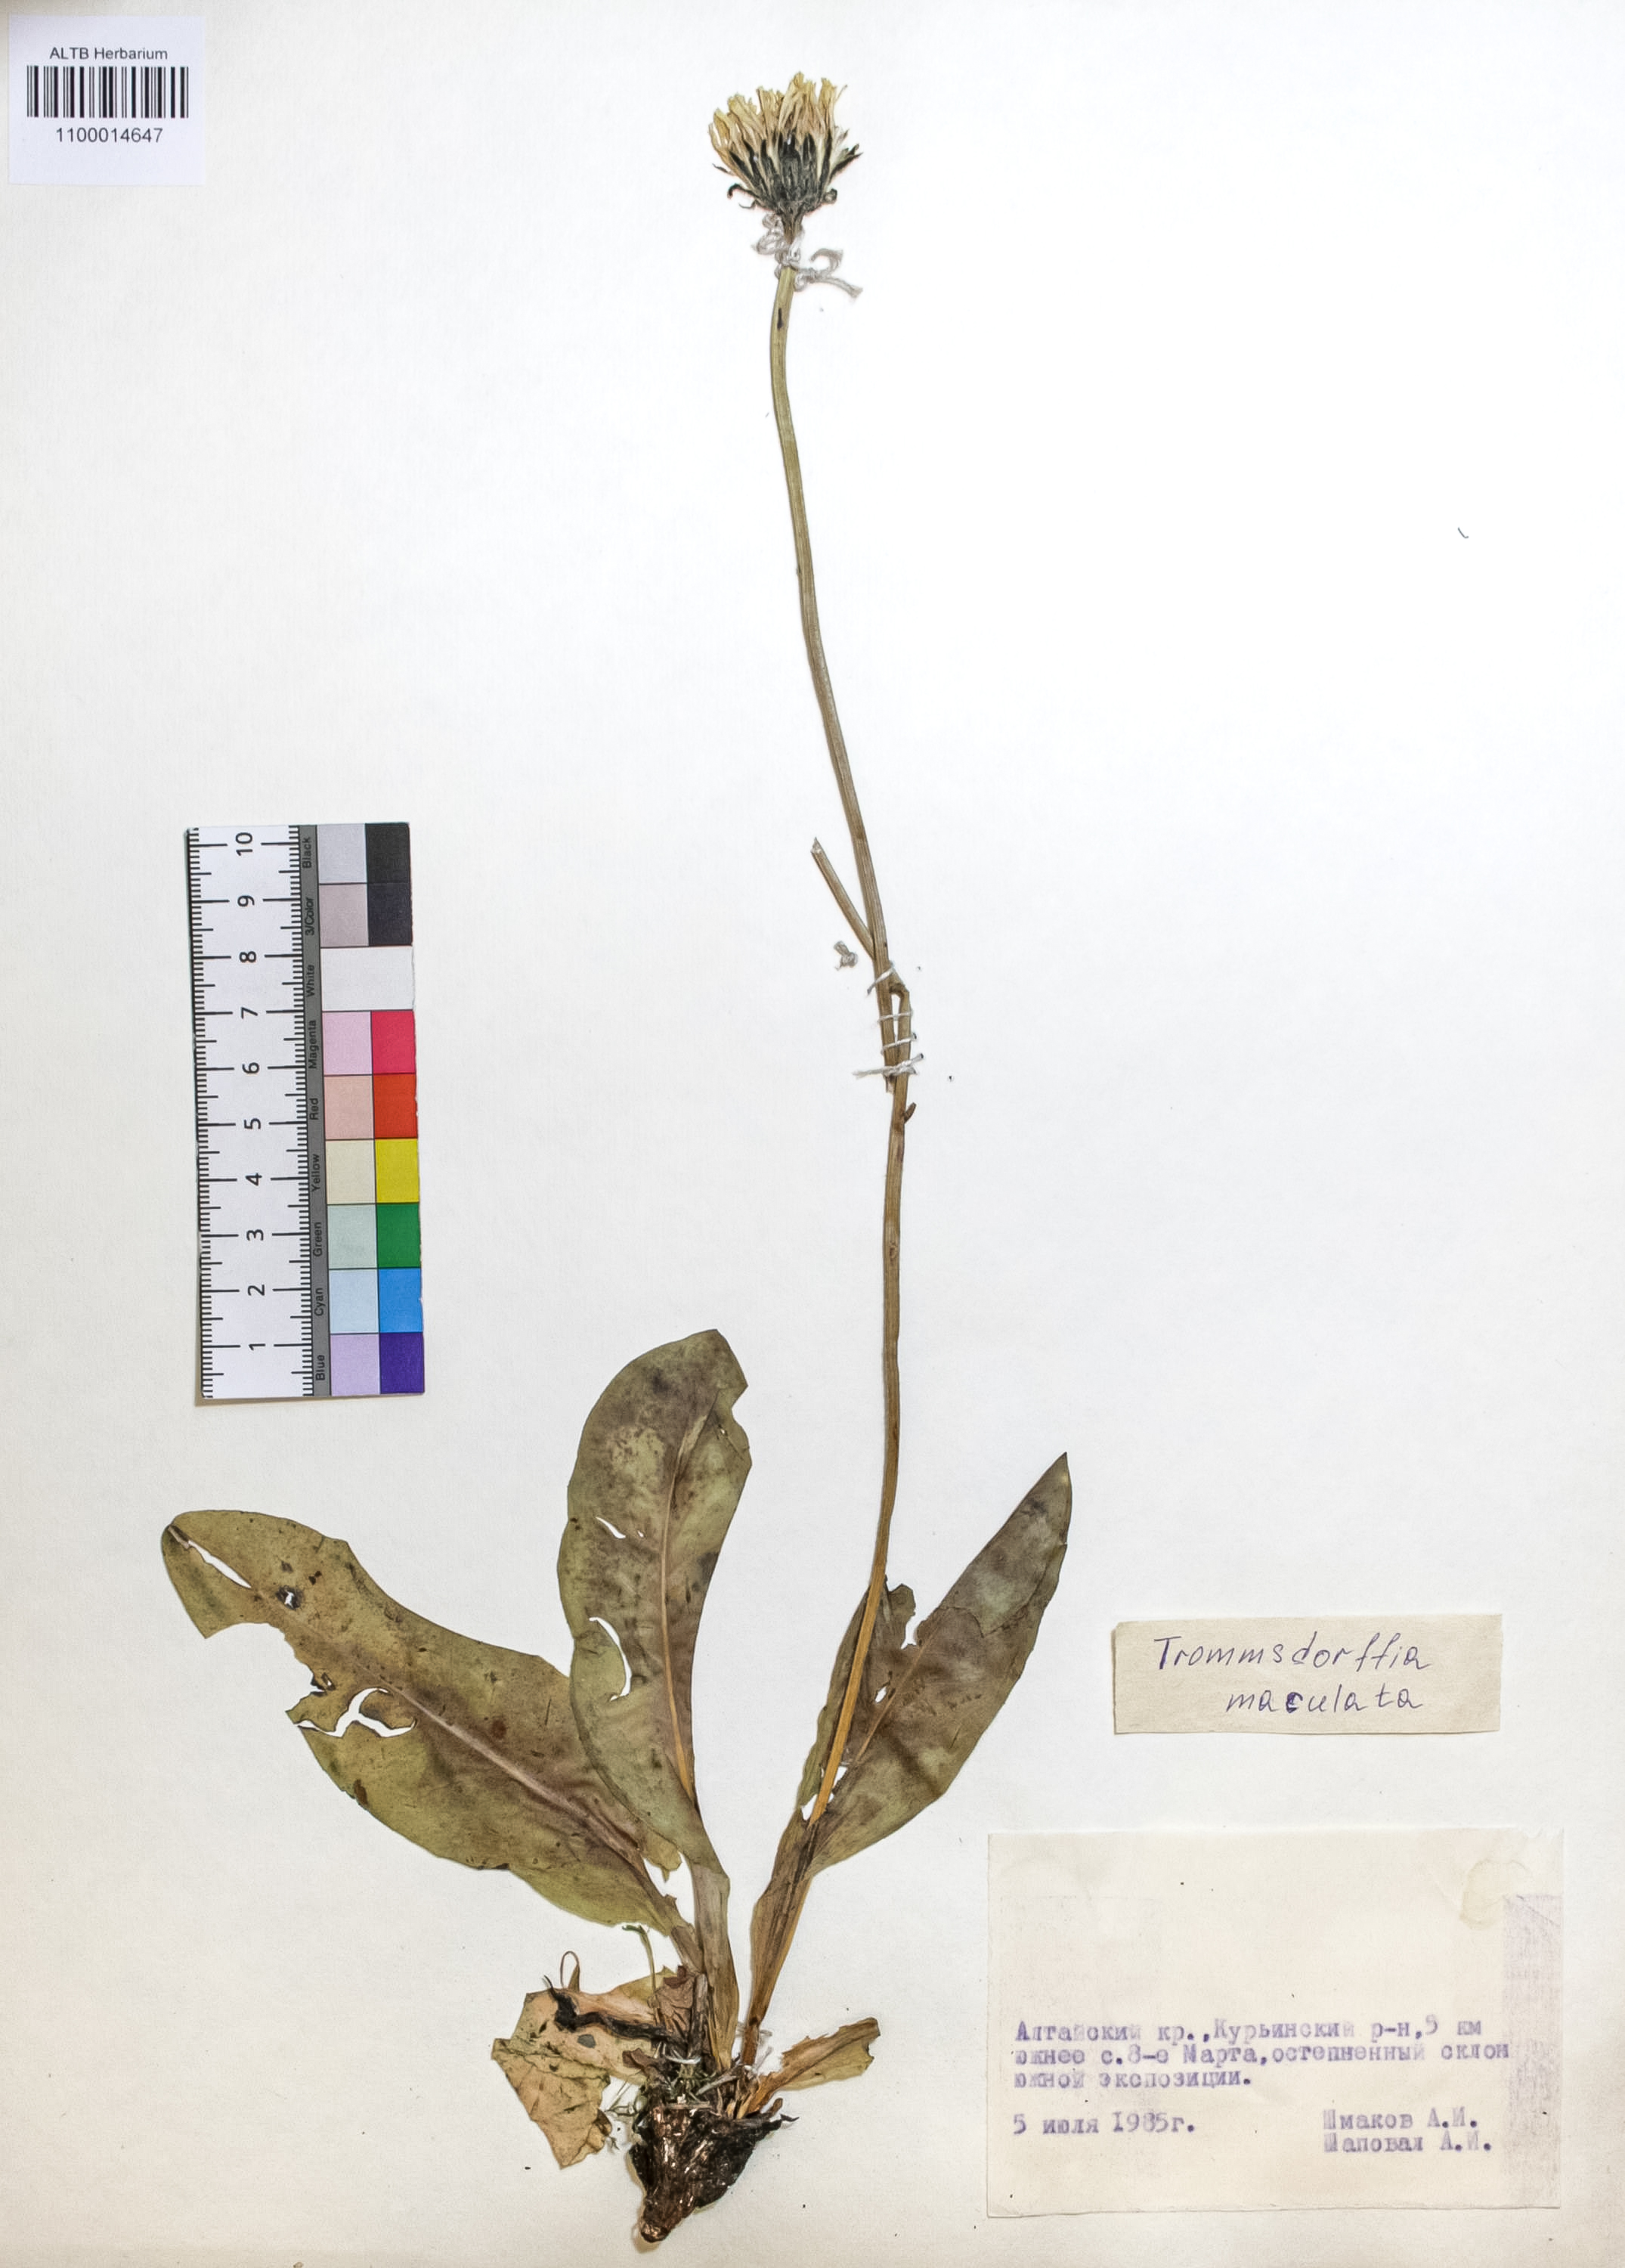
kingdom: Plantae
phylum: Tracheophyta
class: Magnoliopsida
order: Asterales
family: Asteraceae
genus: Trommsdorffia
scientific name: Trommsdorffia maculata
